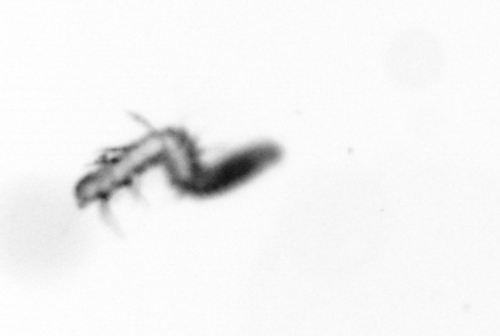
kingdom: Animalia
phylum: Annelida
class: Polychaeta
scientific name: Polychaeta
